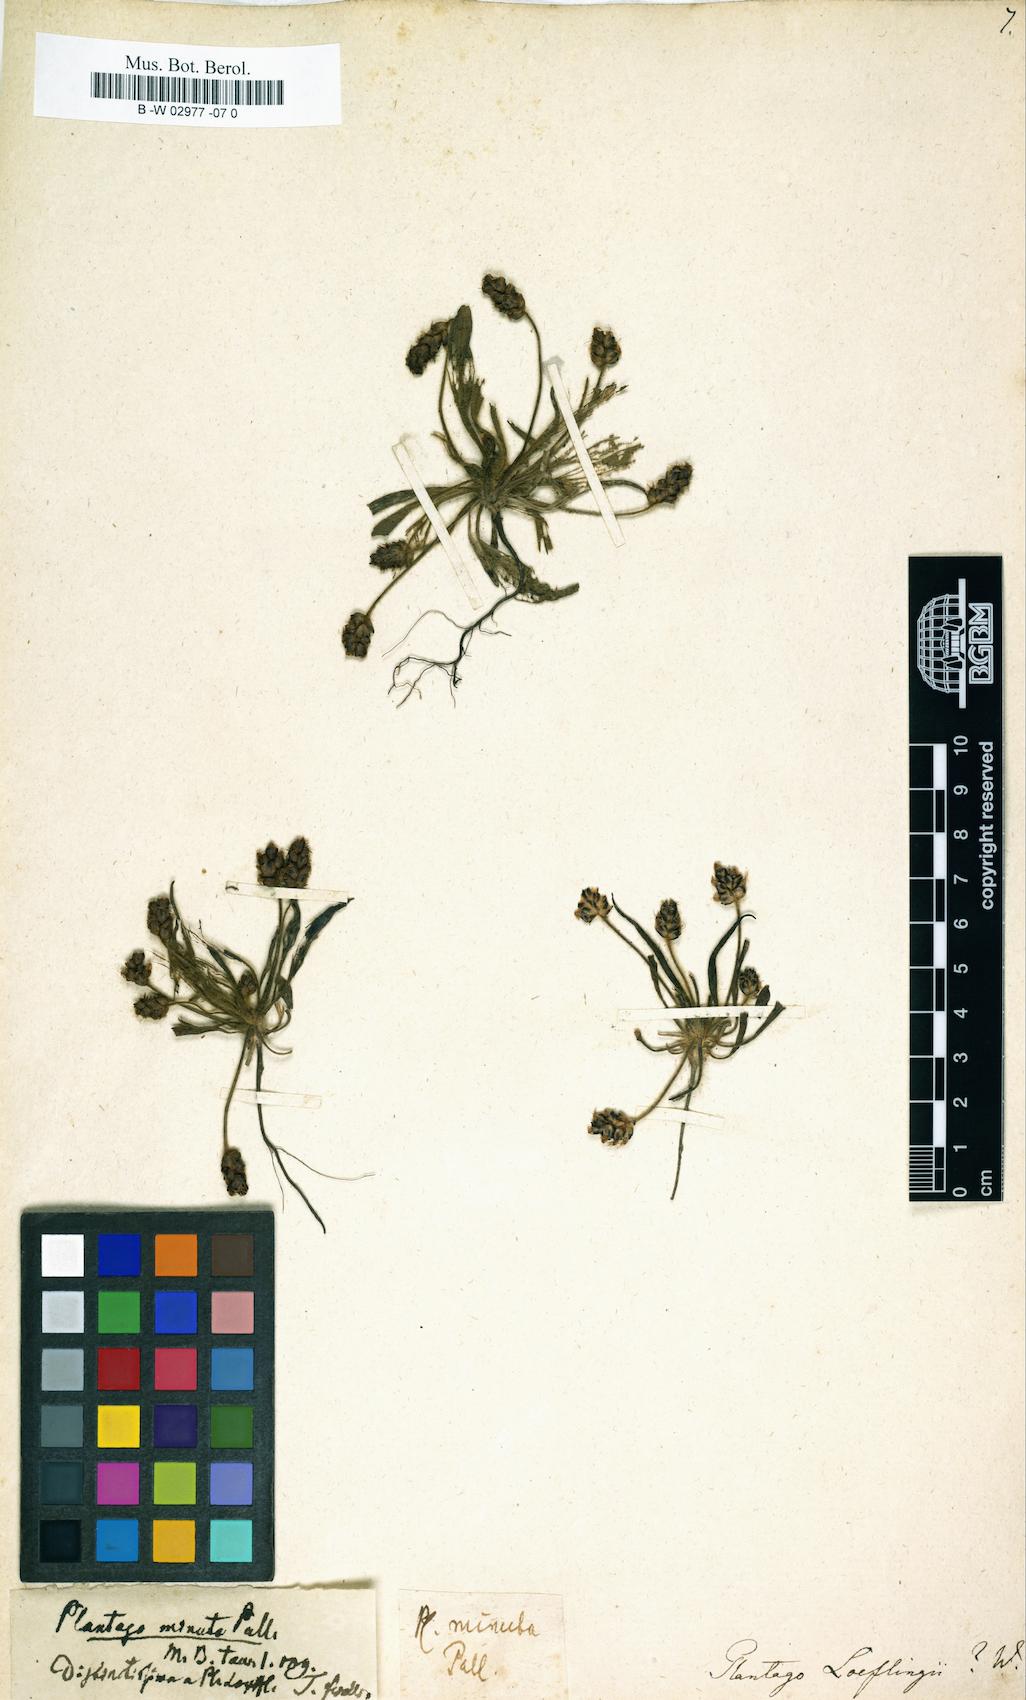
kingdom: Plantae
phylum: Tracheophyta
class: Magnoliopsida
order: Lamiales
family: Plantaginaceae
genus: Plantago
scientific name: Plantago loeflingii
